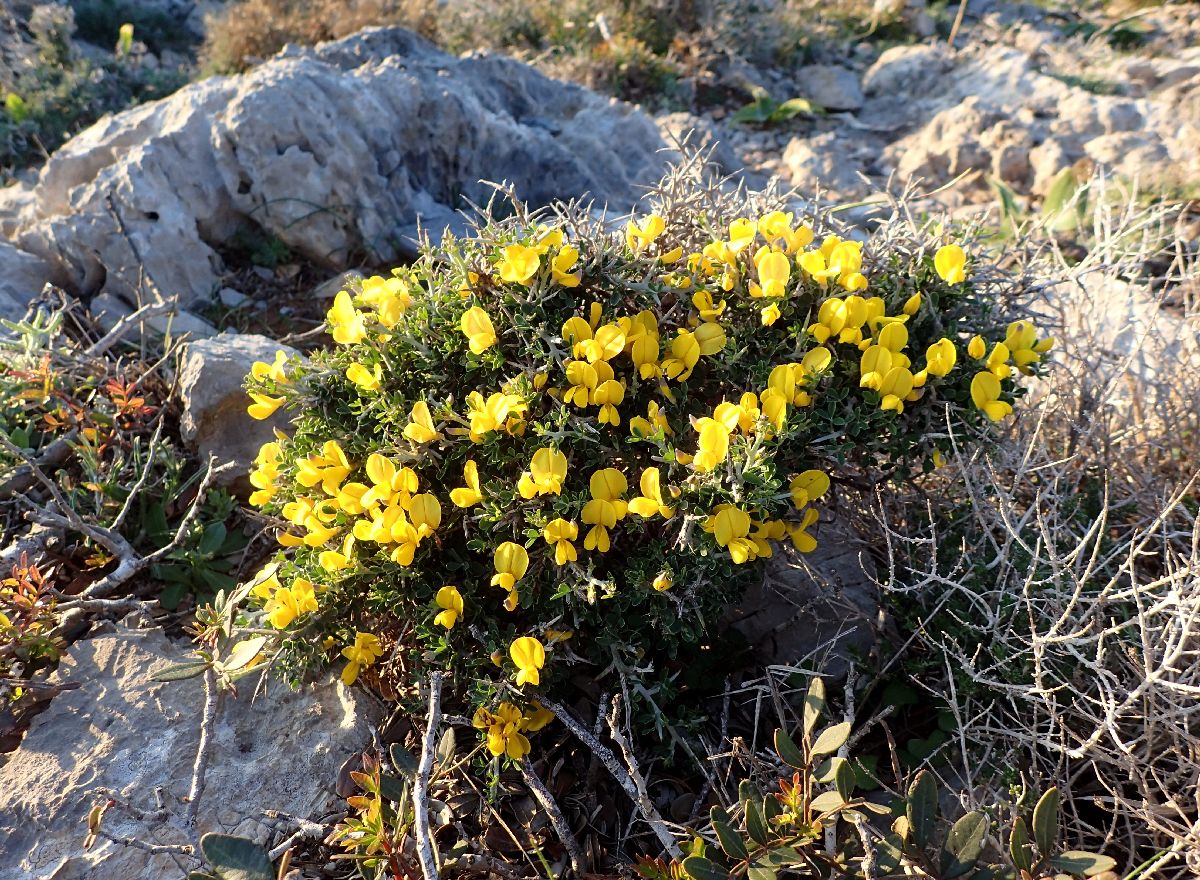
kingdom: Plantae
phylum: Tracheophyta
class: Magnoliopsida
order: Fabales
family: Fabaceae
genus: Calicotome
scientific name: Calicotome villosa
